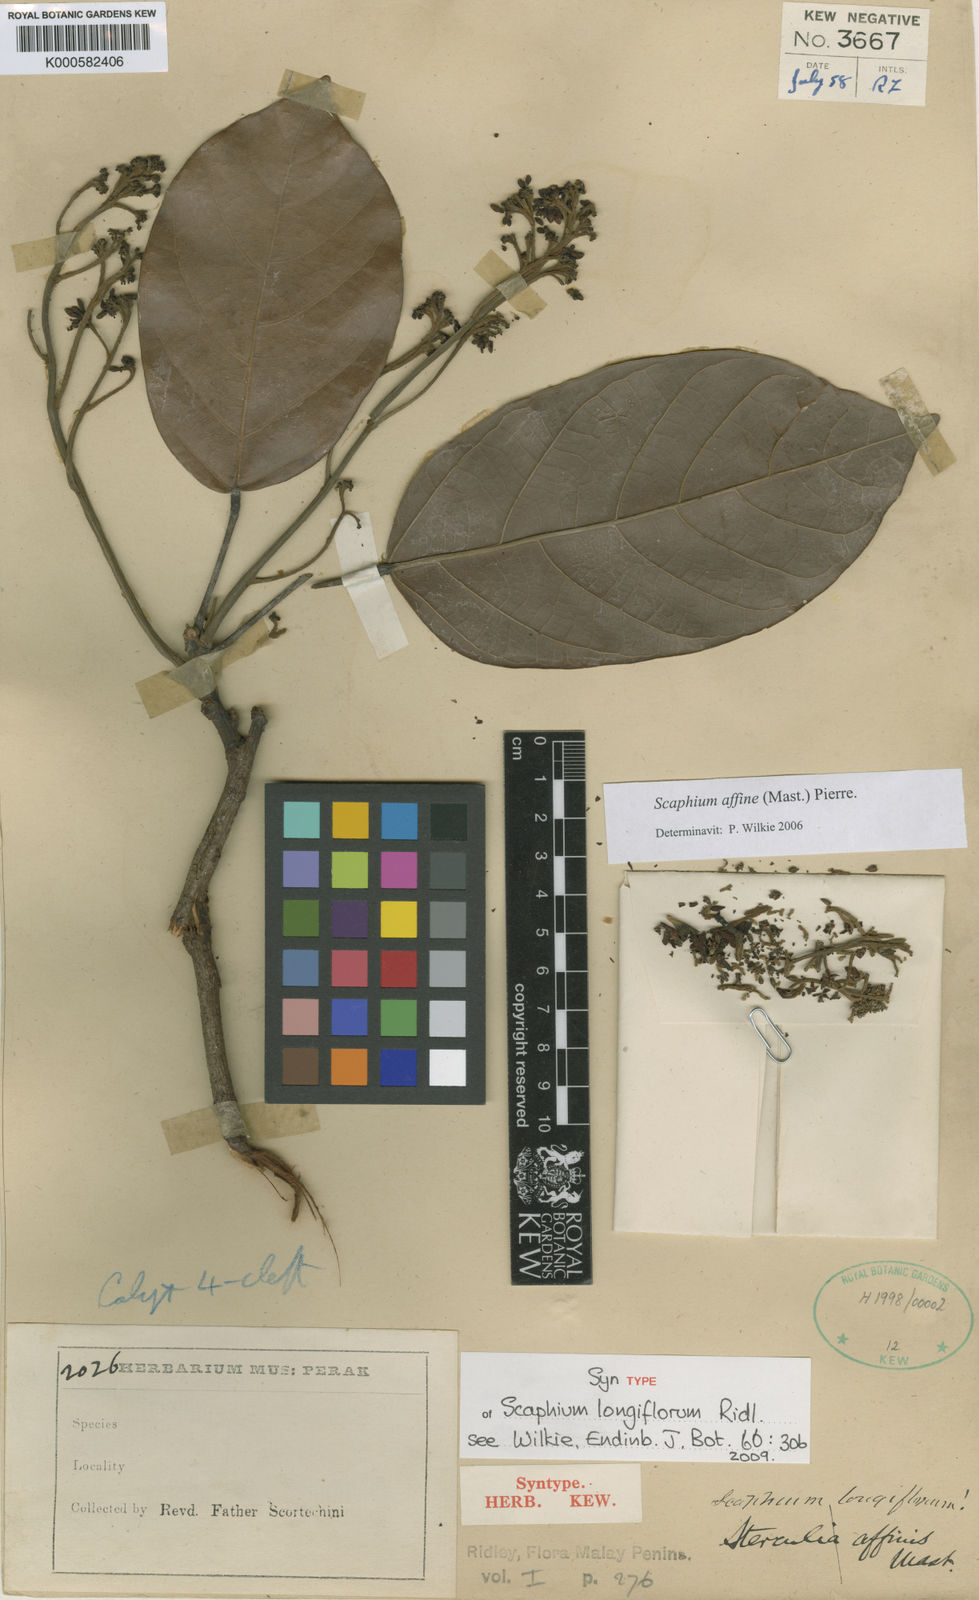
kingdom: Plantae
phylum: Tracheophyta
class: Magnoliopsida
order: Malvales
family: Malvaceae
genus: Scaphium
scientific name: Scaphium affine
